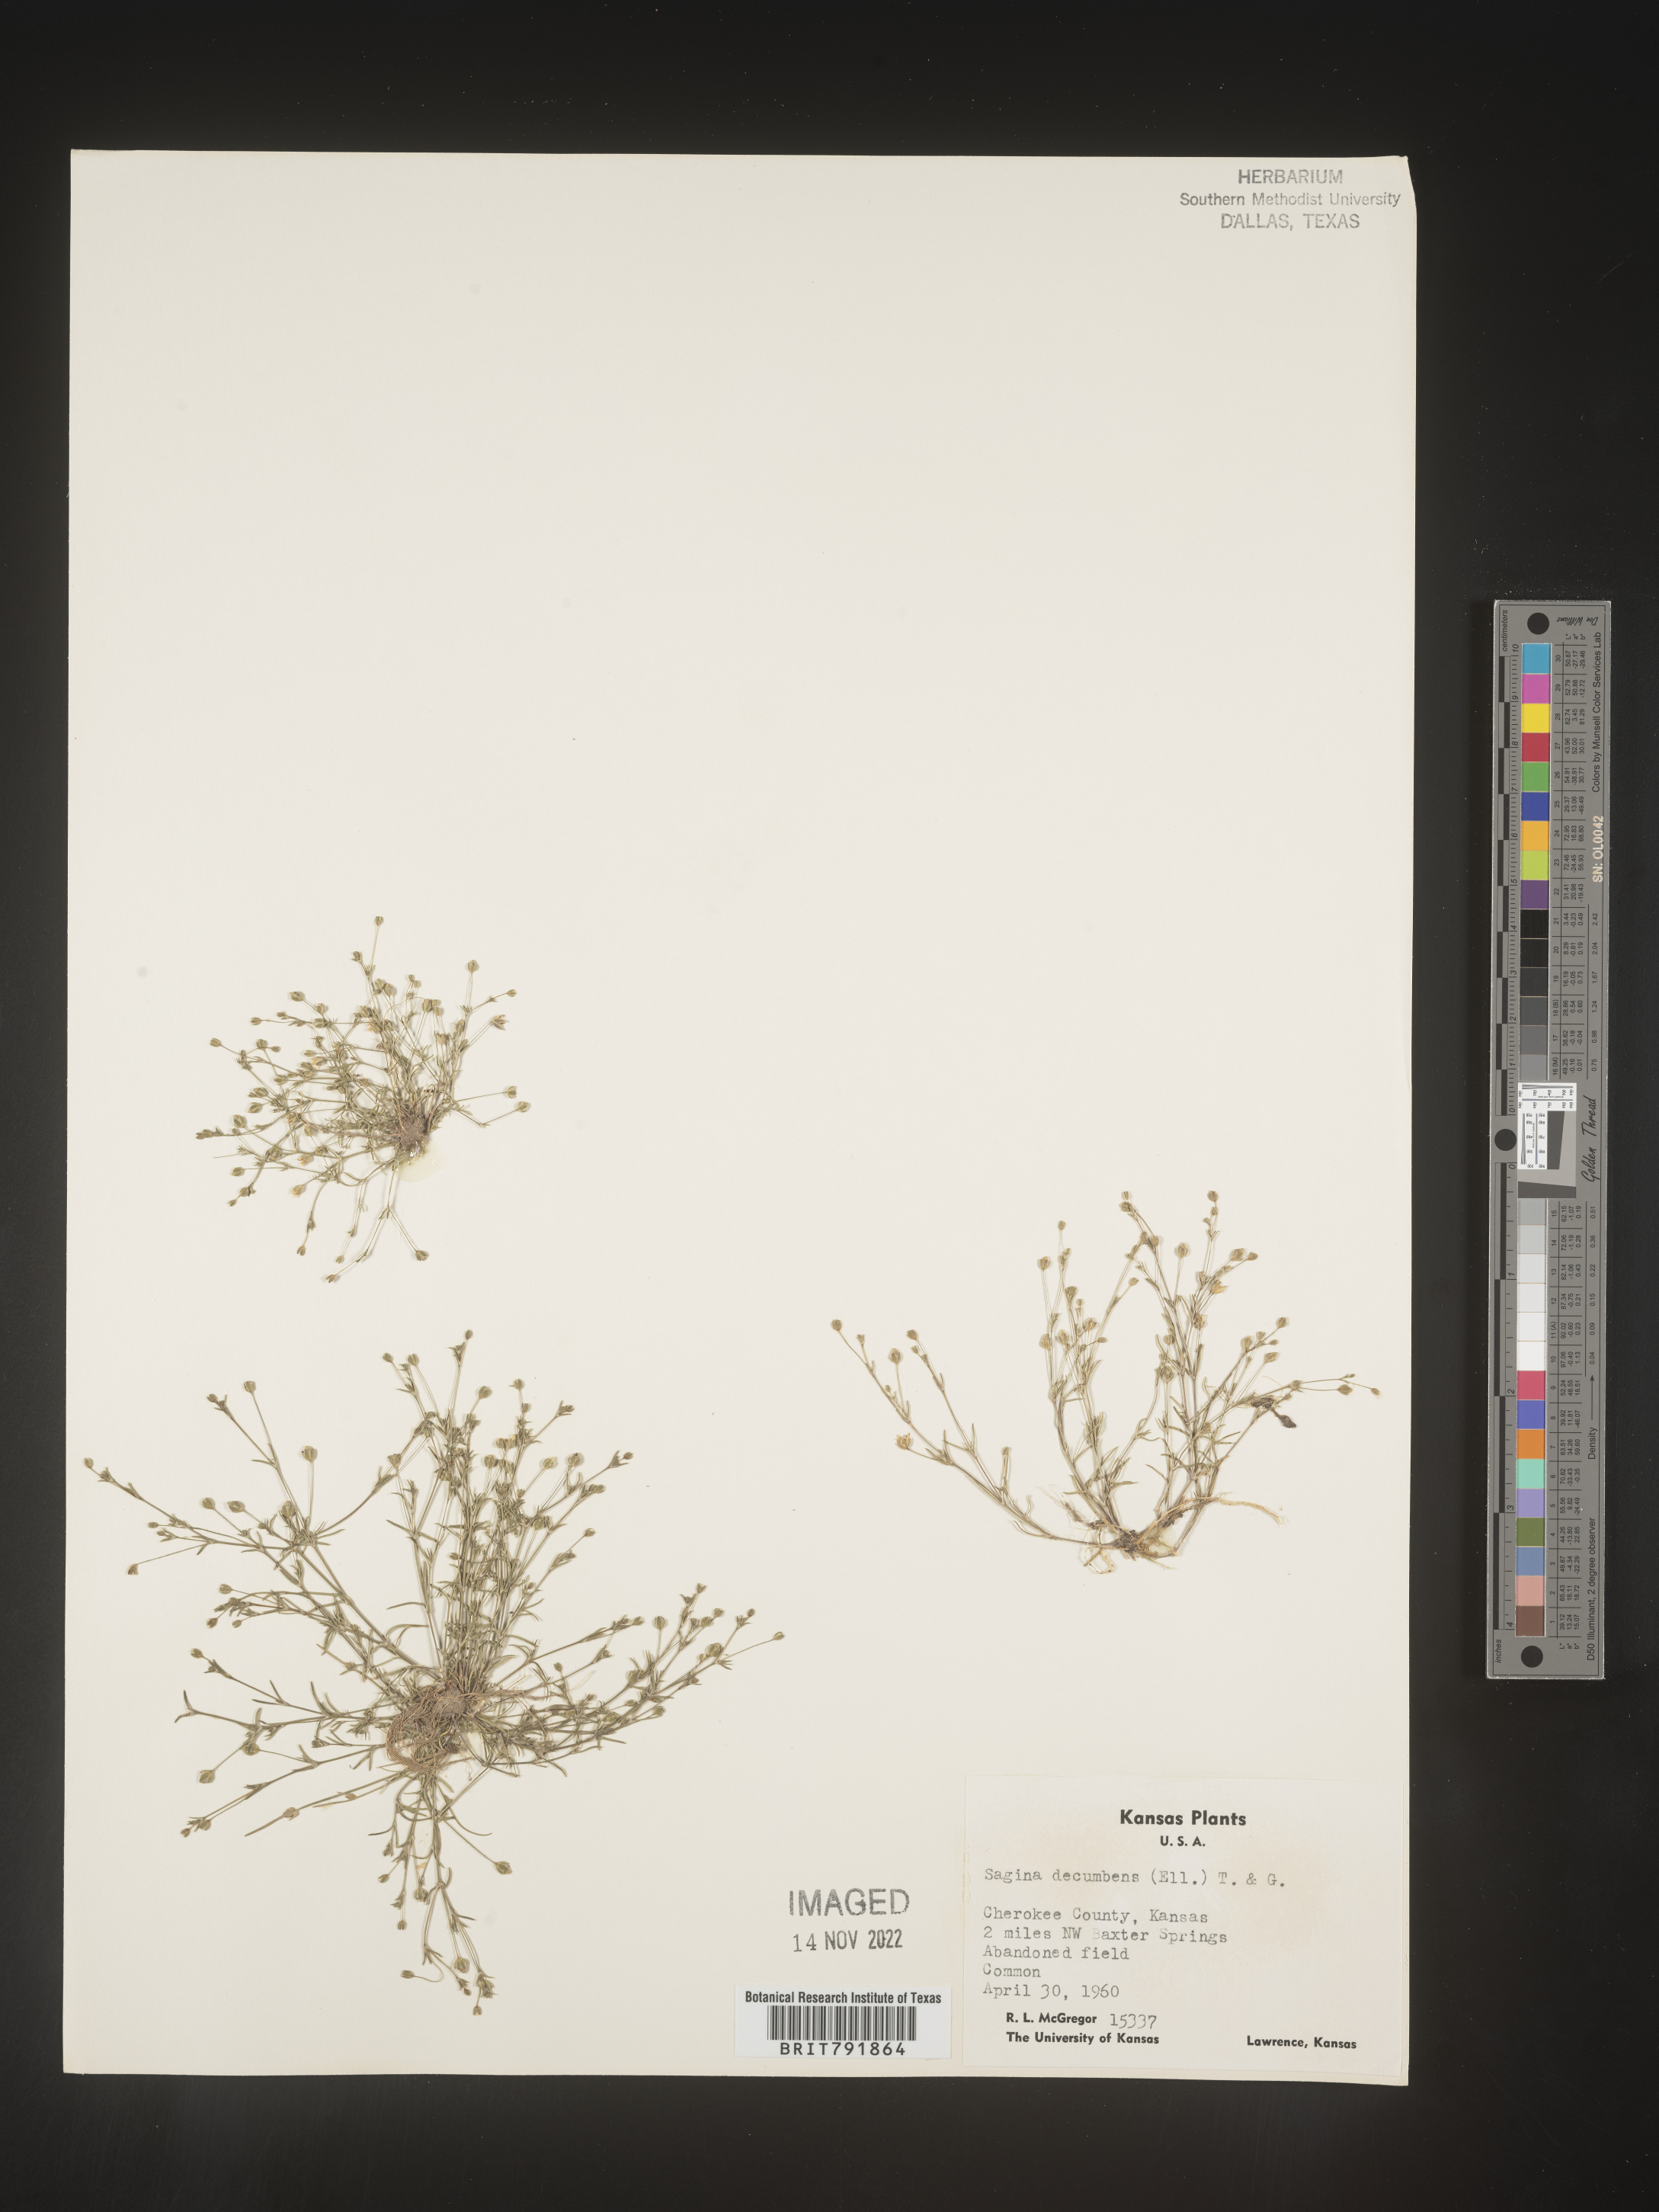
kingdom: Plantae
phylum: Tracheophyta
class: Magnoliopsida
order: Caryophyllales
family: Caryophyllaceae
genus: Sagina
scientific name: Sagina decumbens
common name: Decumbent pearlwort
